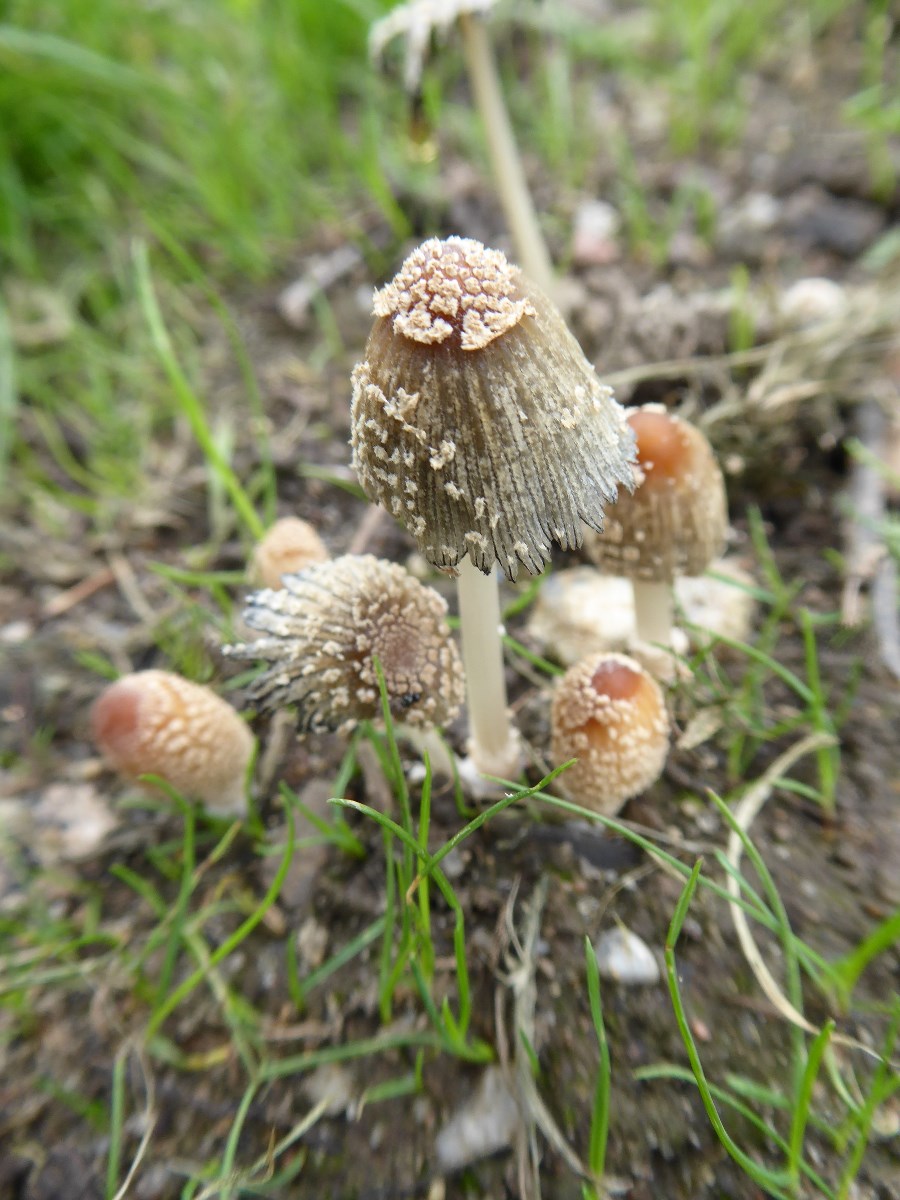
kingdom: Fungi
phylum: Basidiomycota
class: Agaricomycetes
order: Agaricales
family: Psathyrellaceae
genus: Coprinellus
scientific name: Coprinellus flocculosus
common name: fnugget blækhat
